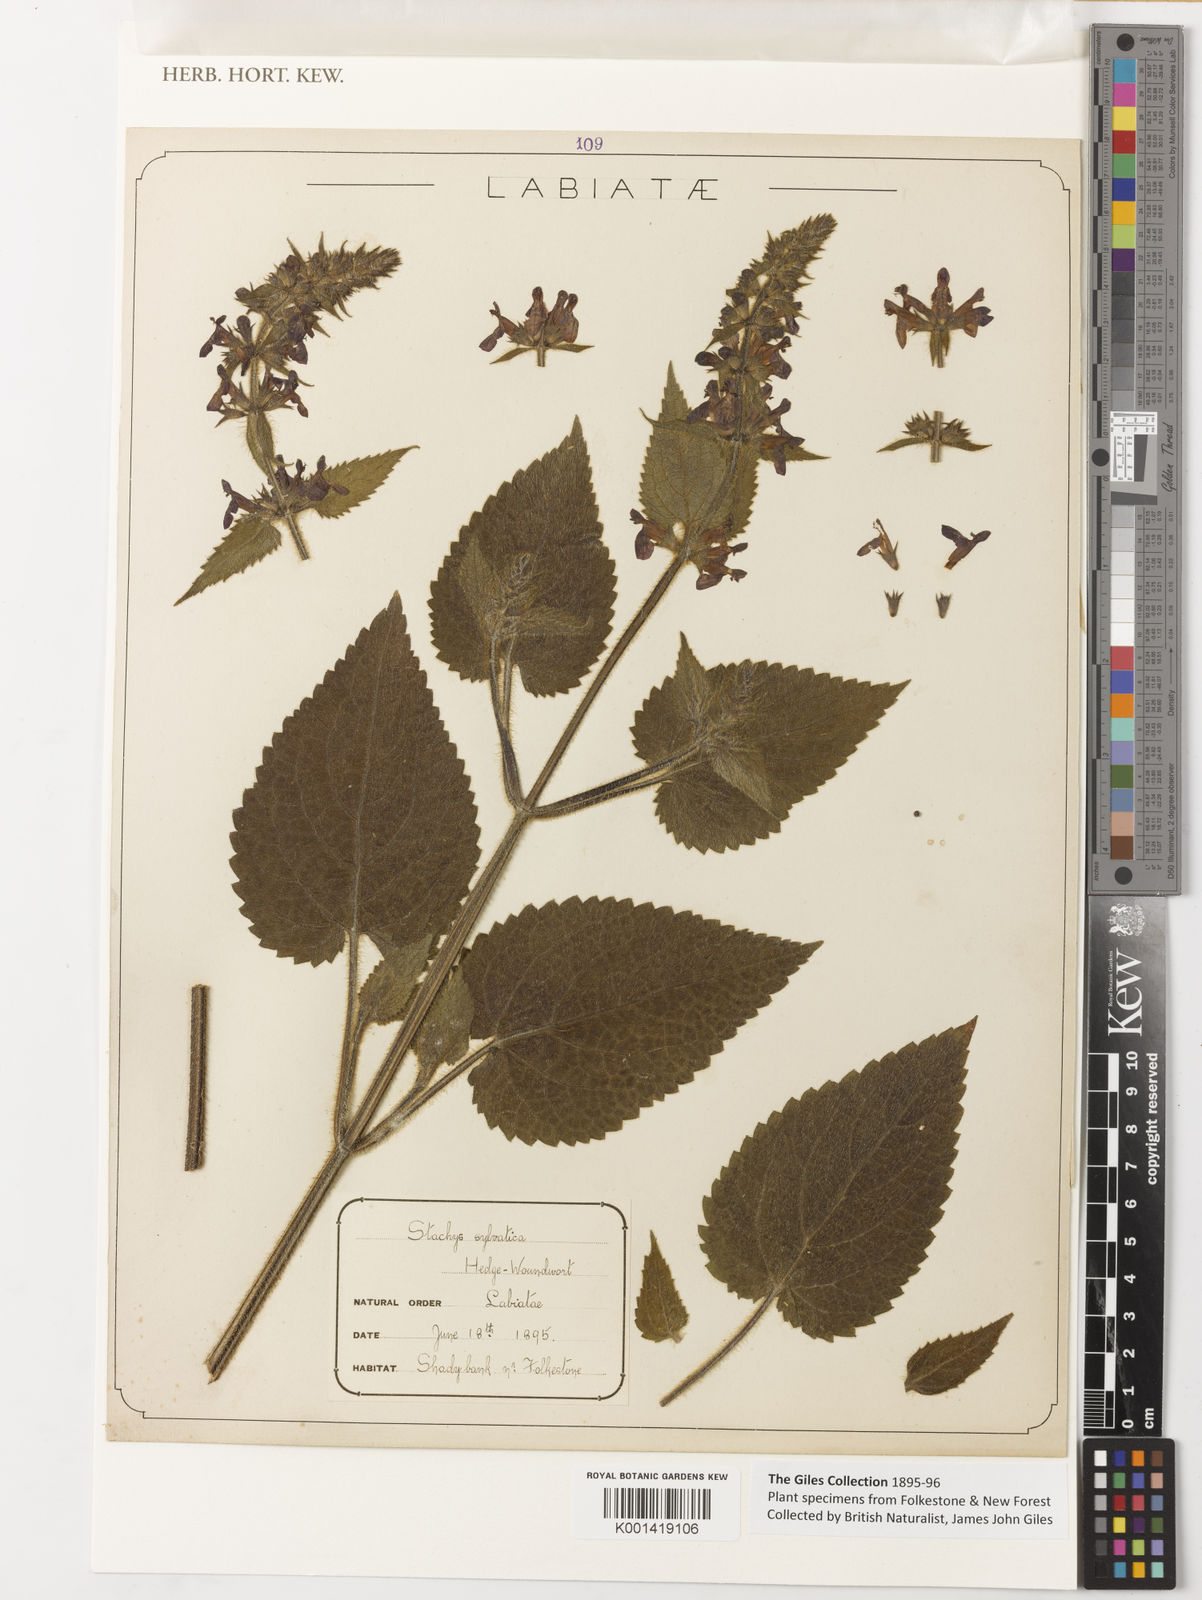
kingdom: Plantae
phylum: Tracheophyta
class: Magnoliopsida
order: Lamiales
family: Lamiaceae
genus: Stachys
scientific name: Stachys sylvatica
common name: Hedge woundwort
